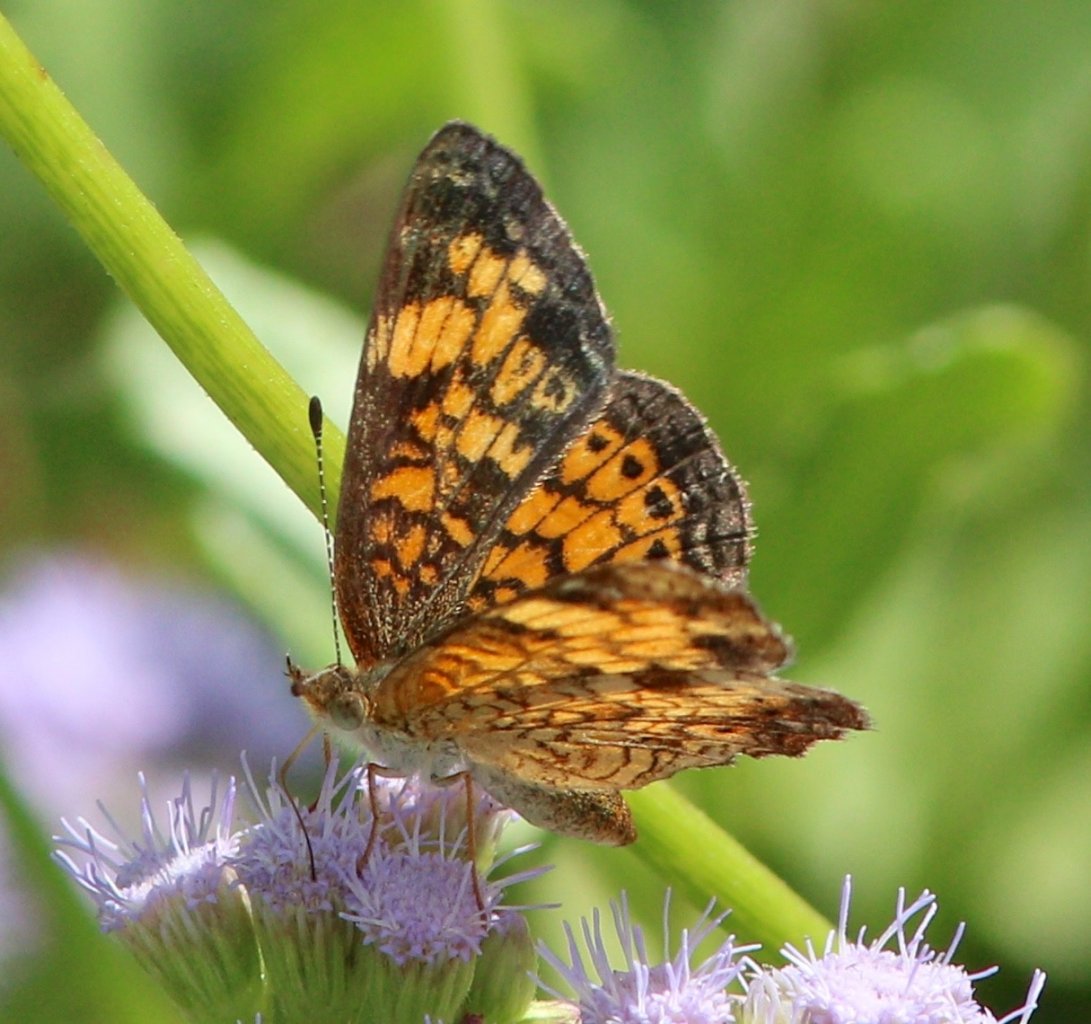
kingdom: Animalia
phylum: Arthropoda
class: Insecta
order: Lepidoptera
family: Nymphalidae
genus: Phyciodes
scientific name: Phyciodes tharos
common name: Pearl Crescent
